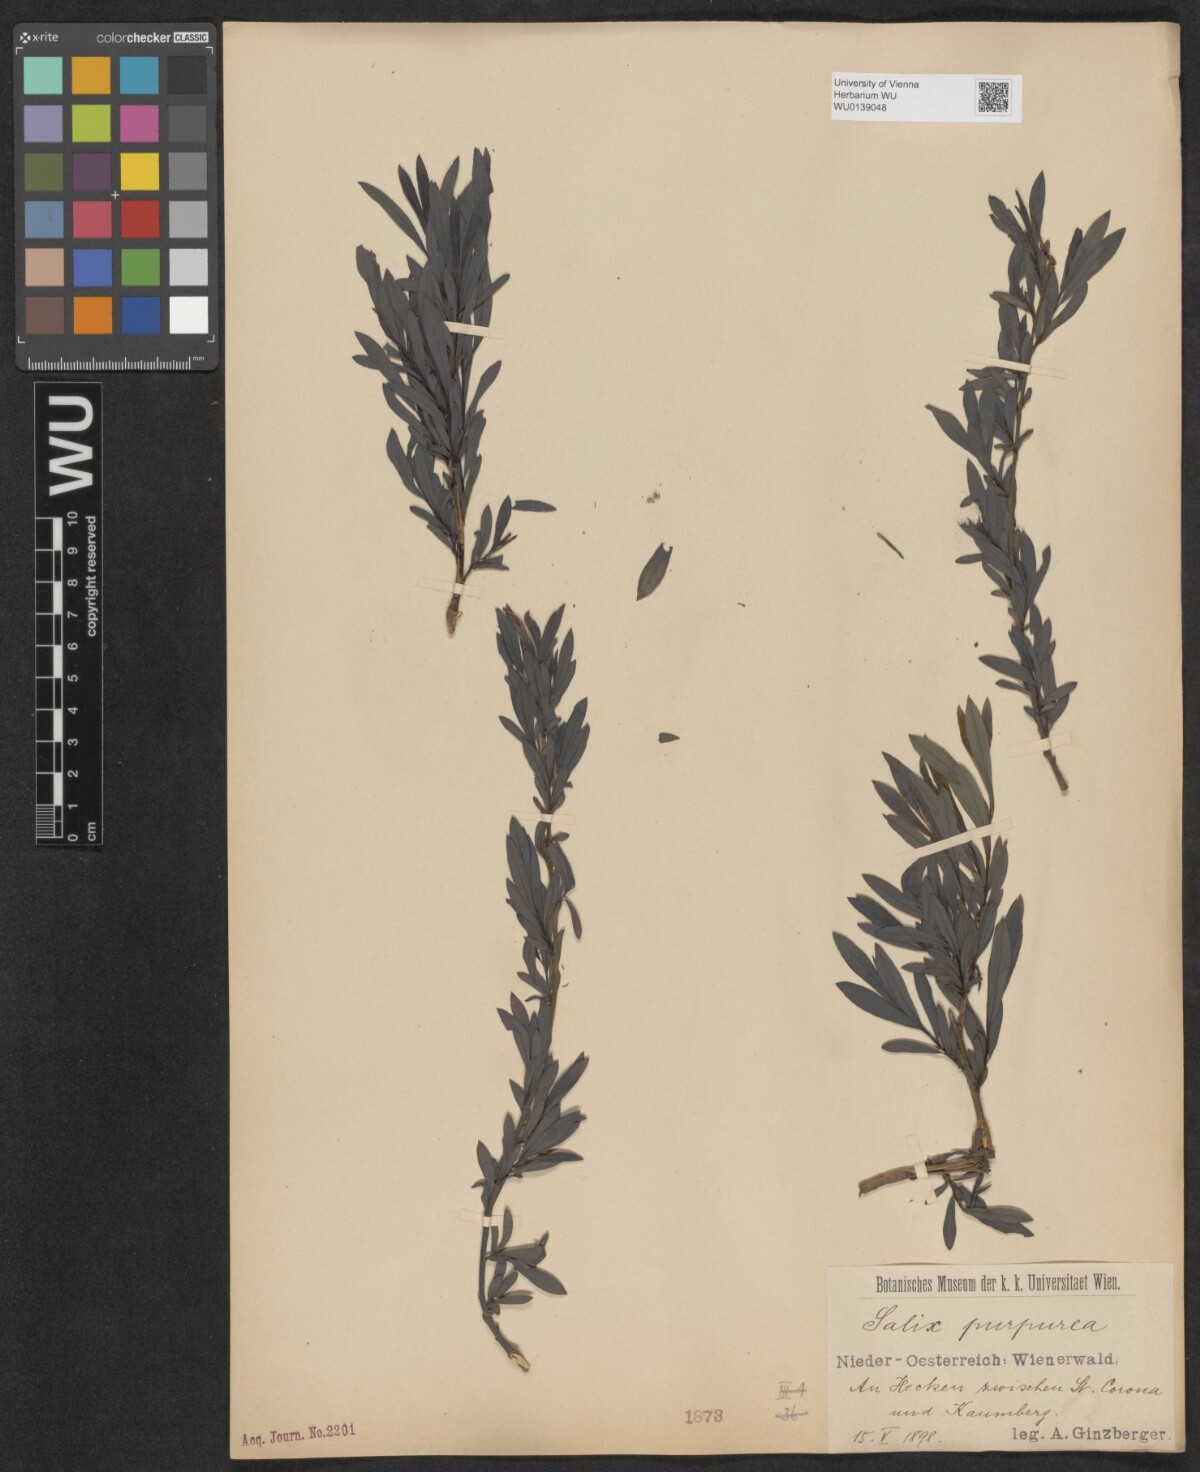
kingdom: Plantae
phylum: Tracheophyta
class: Magnoliopsida
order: Malpighiales
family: Salicaceae
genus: Salix
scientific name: Salix purpurea
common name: Purple willow
